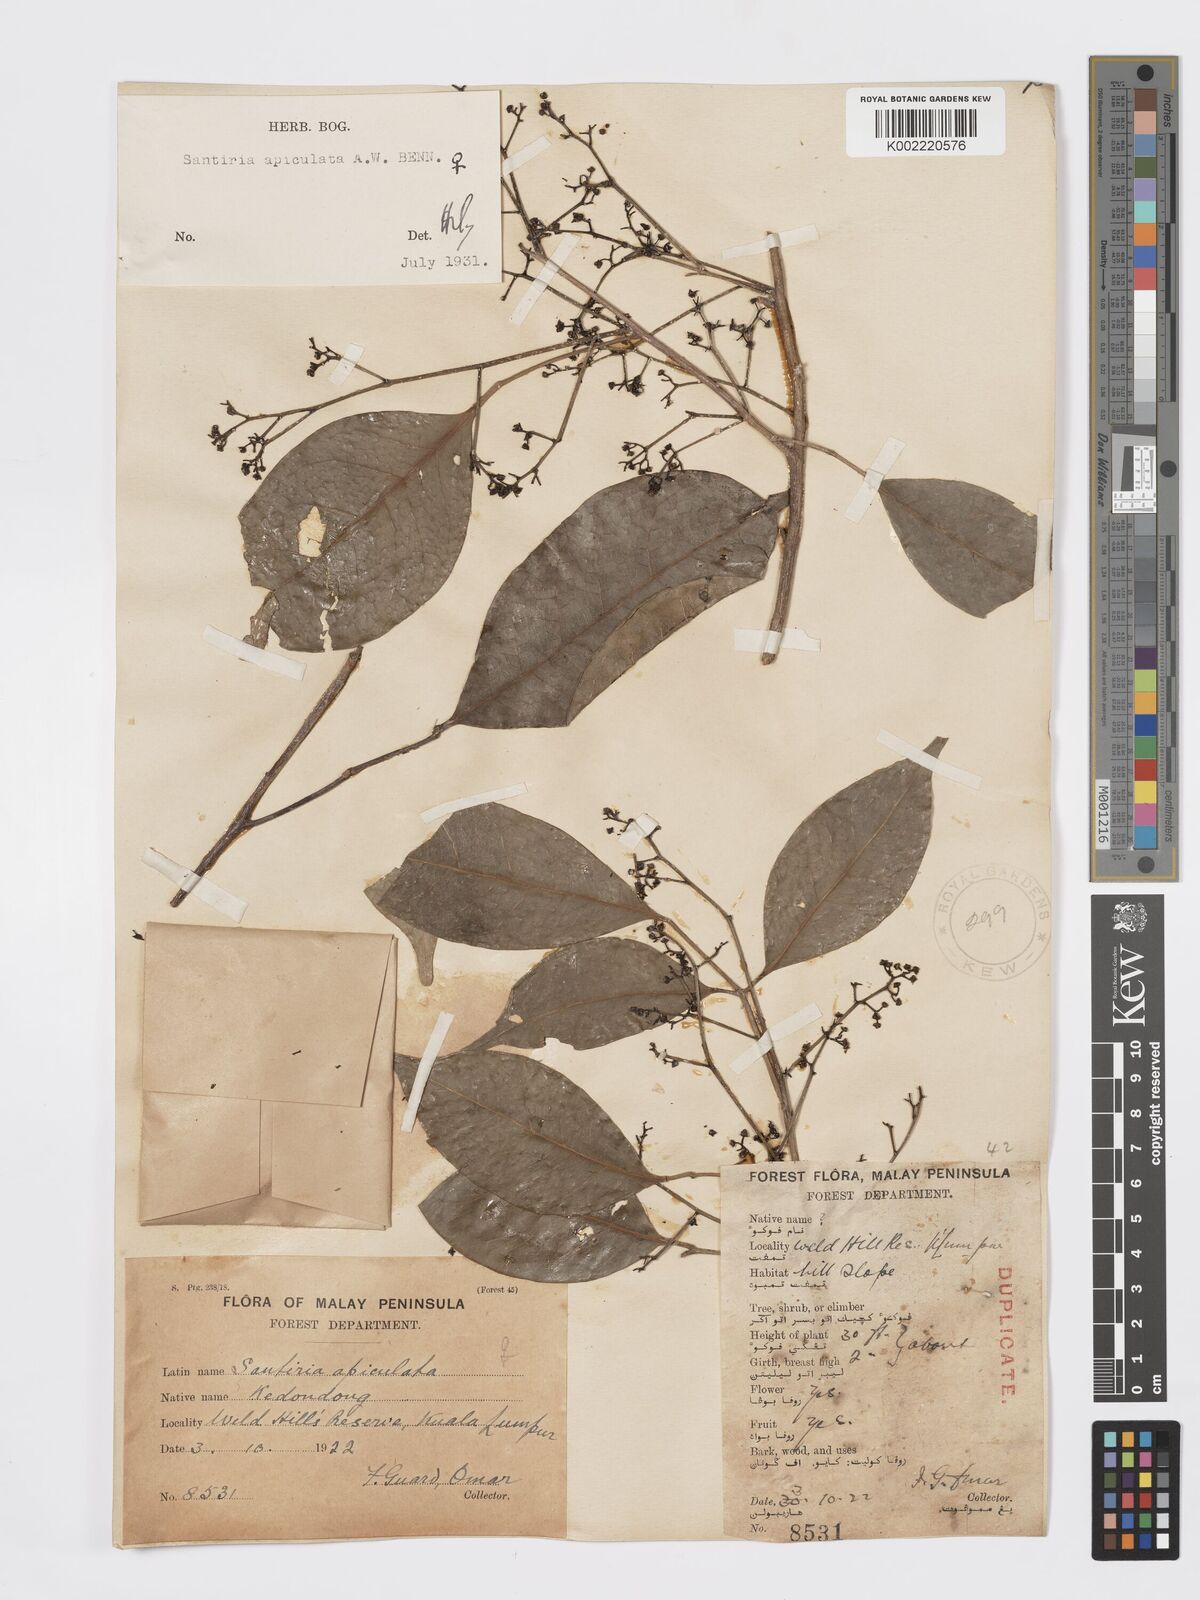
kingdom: Plantae
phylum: Tracheophyta
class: Magnoliopsida
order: Sapindales
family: Burseraceae
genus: Santiria
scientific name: Santiria apiculata
